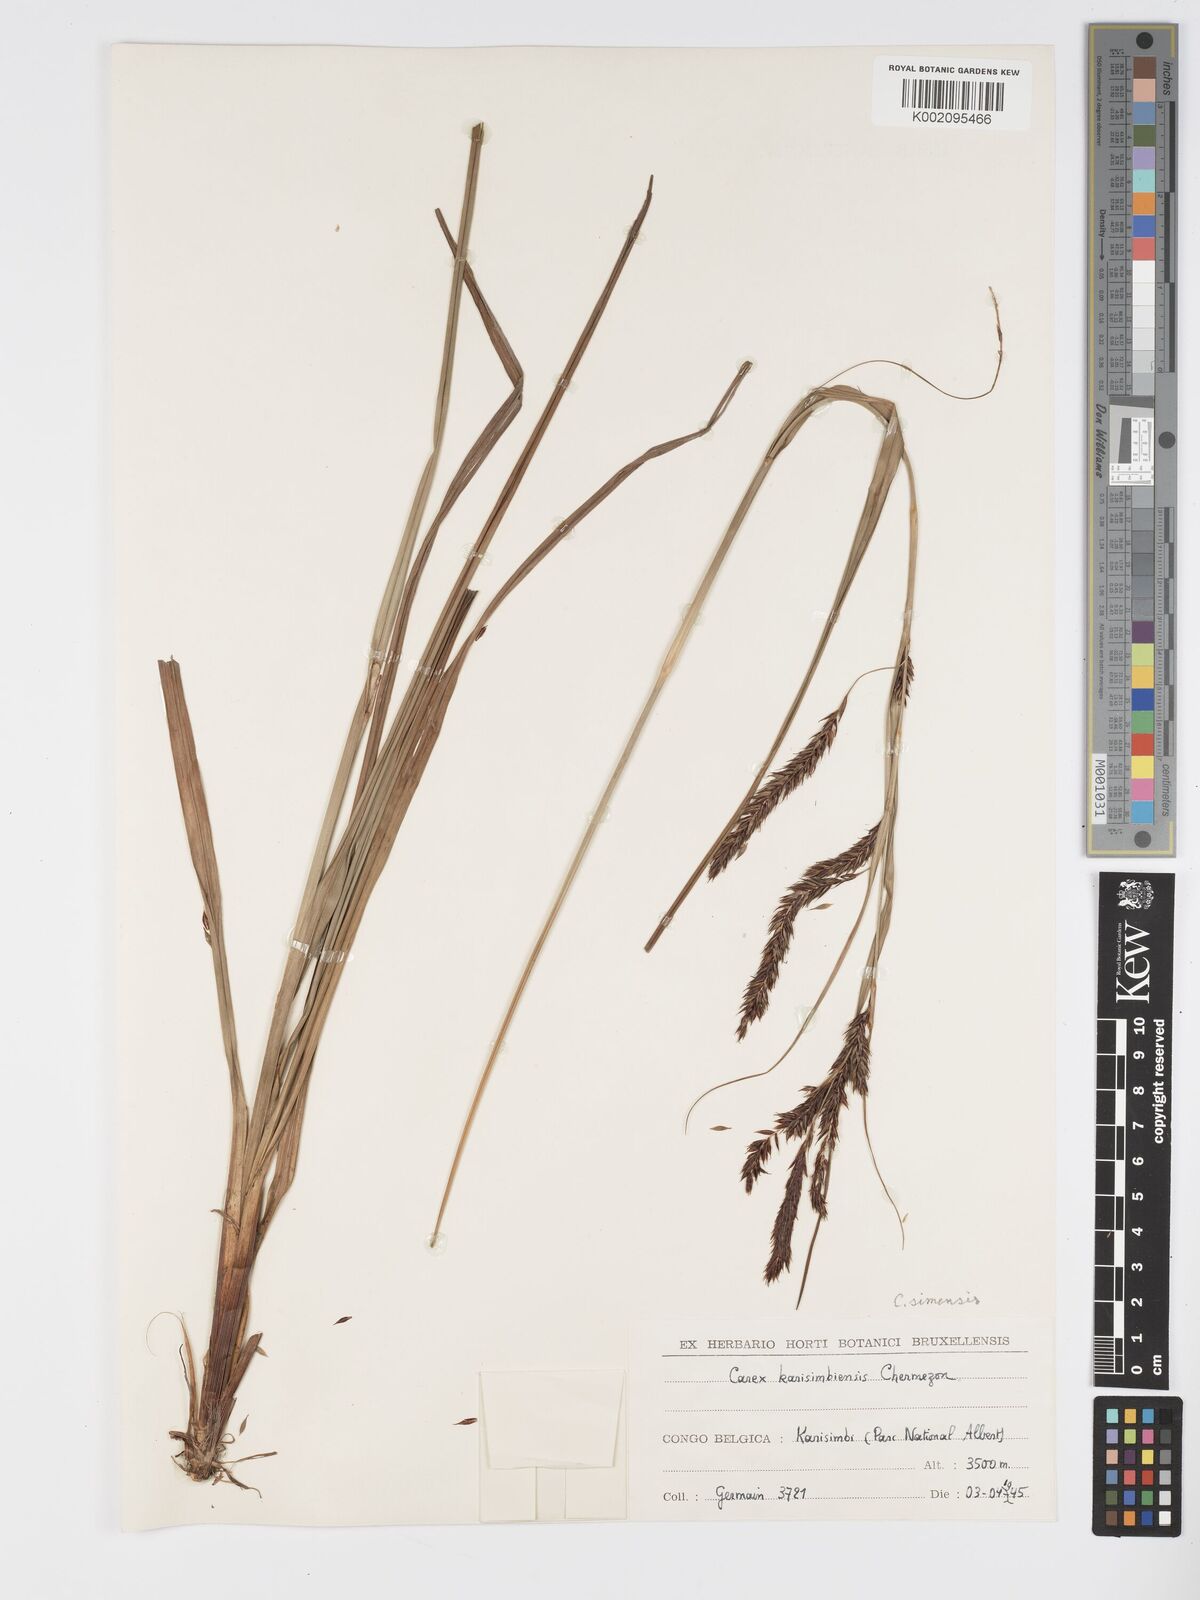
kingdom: Plantae
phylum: Tracheophyta
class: Liliopsida
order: Poales
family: Cyperaceae
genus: Carex
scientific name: Carex simensis
